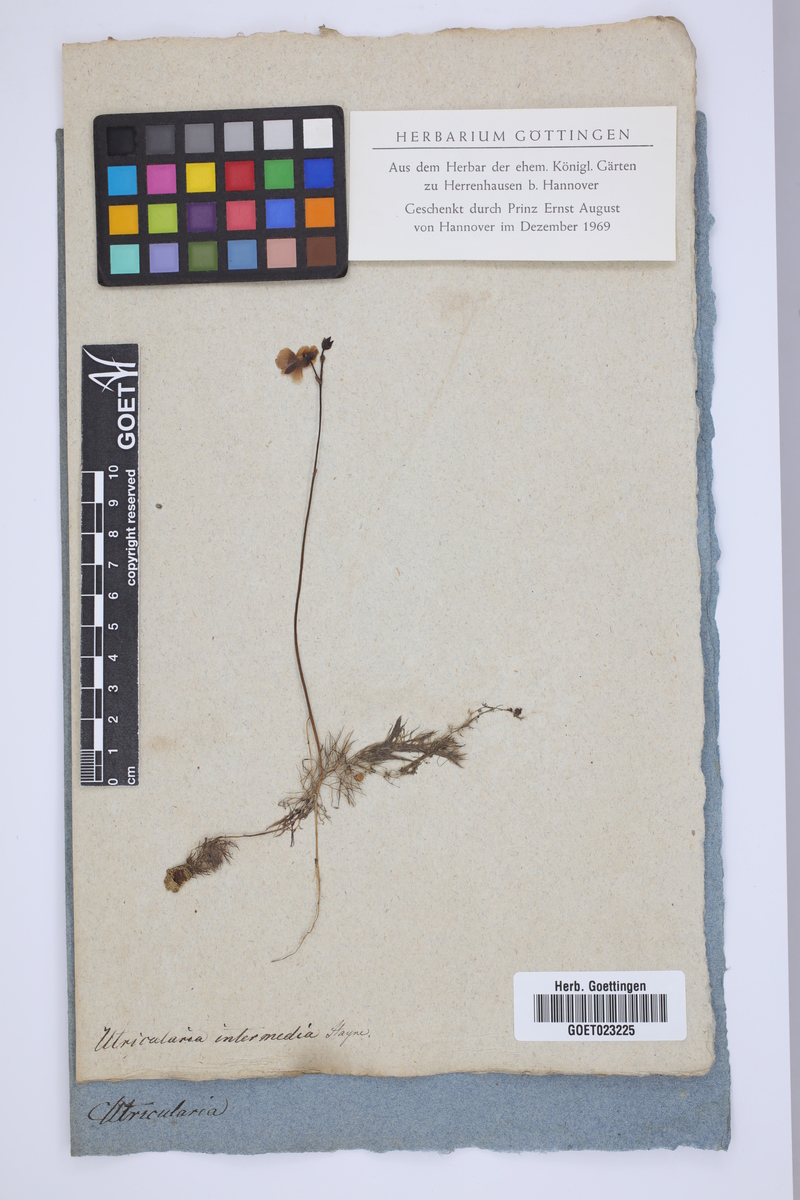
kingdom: Plantae
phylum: Tracheophyta
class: Magnoliopsida
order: Lamiales
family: Lentibulariaceae
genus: Utricularia
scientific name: Utricularia intermedia
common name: Intermediate bladderwort
